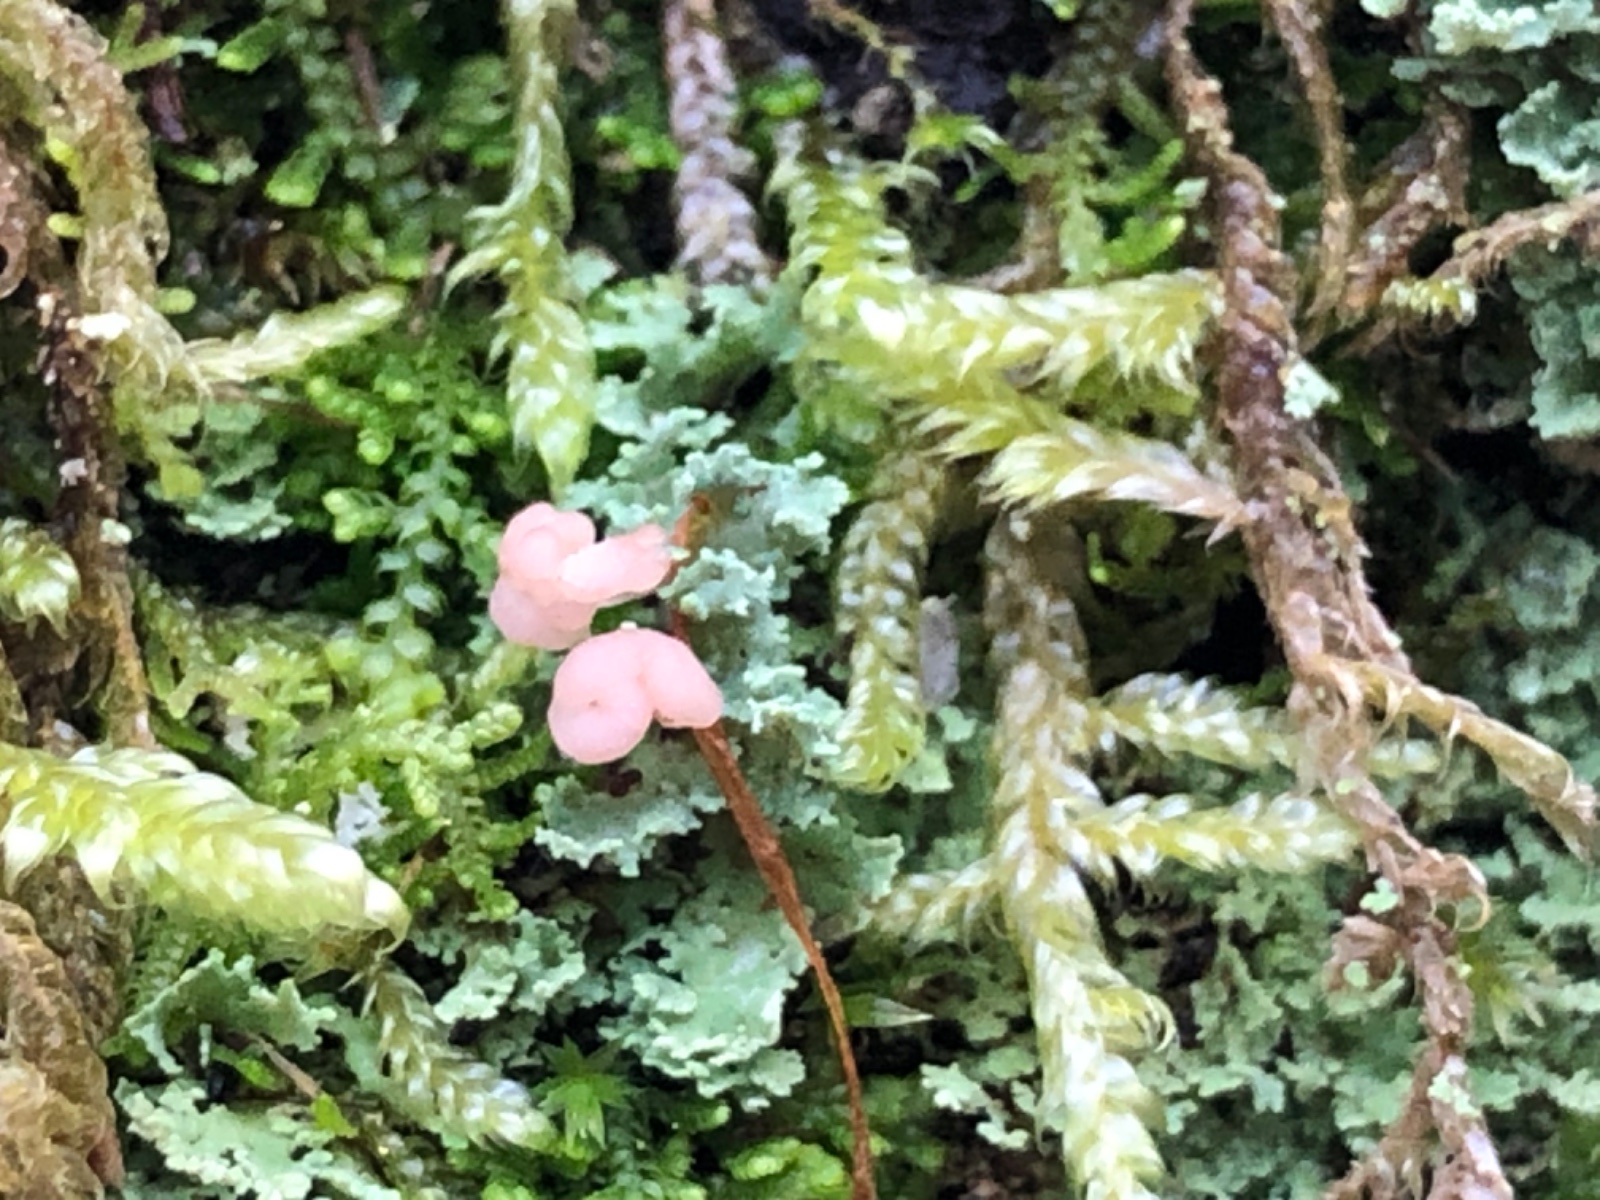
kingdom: Fungi
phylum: Ascomycota
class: Lecanoromycetes
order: Lecanorales
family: Cladoniaceae
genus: Cladonia
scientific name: Cladonia caespiticia
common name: tæppe-bægerlav
